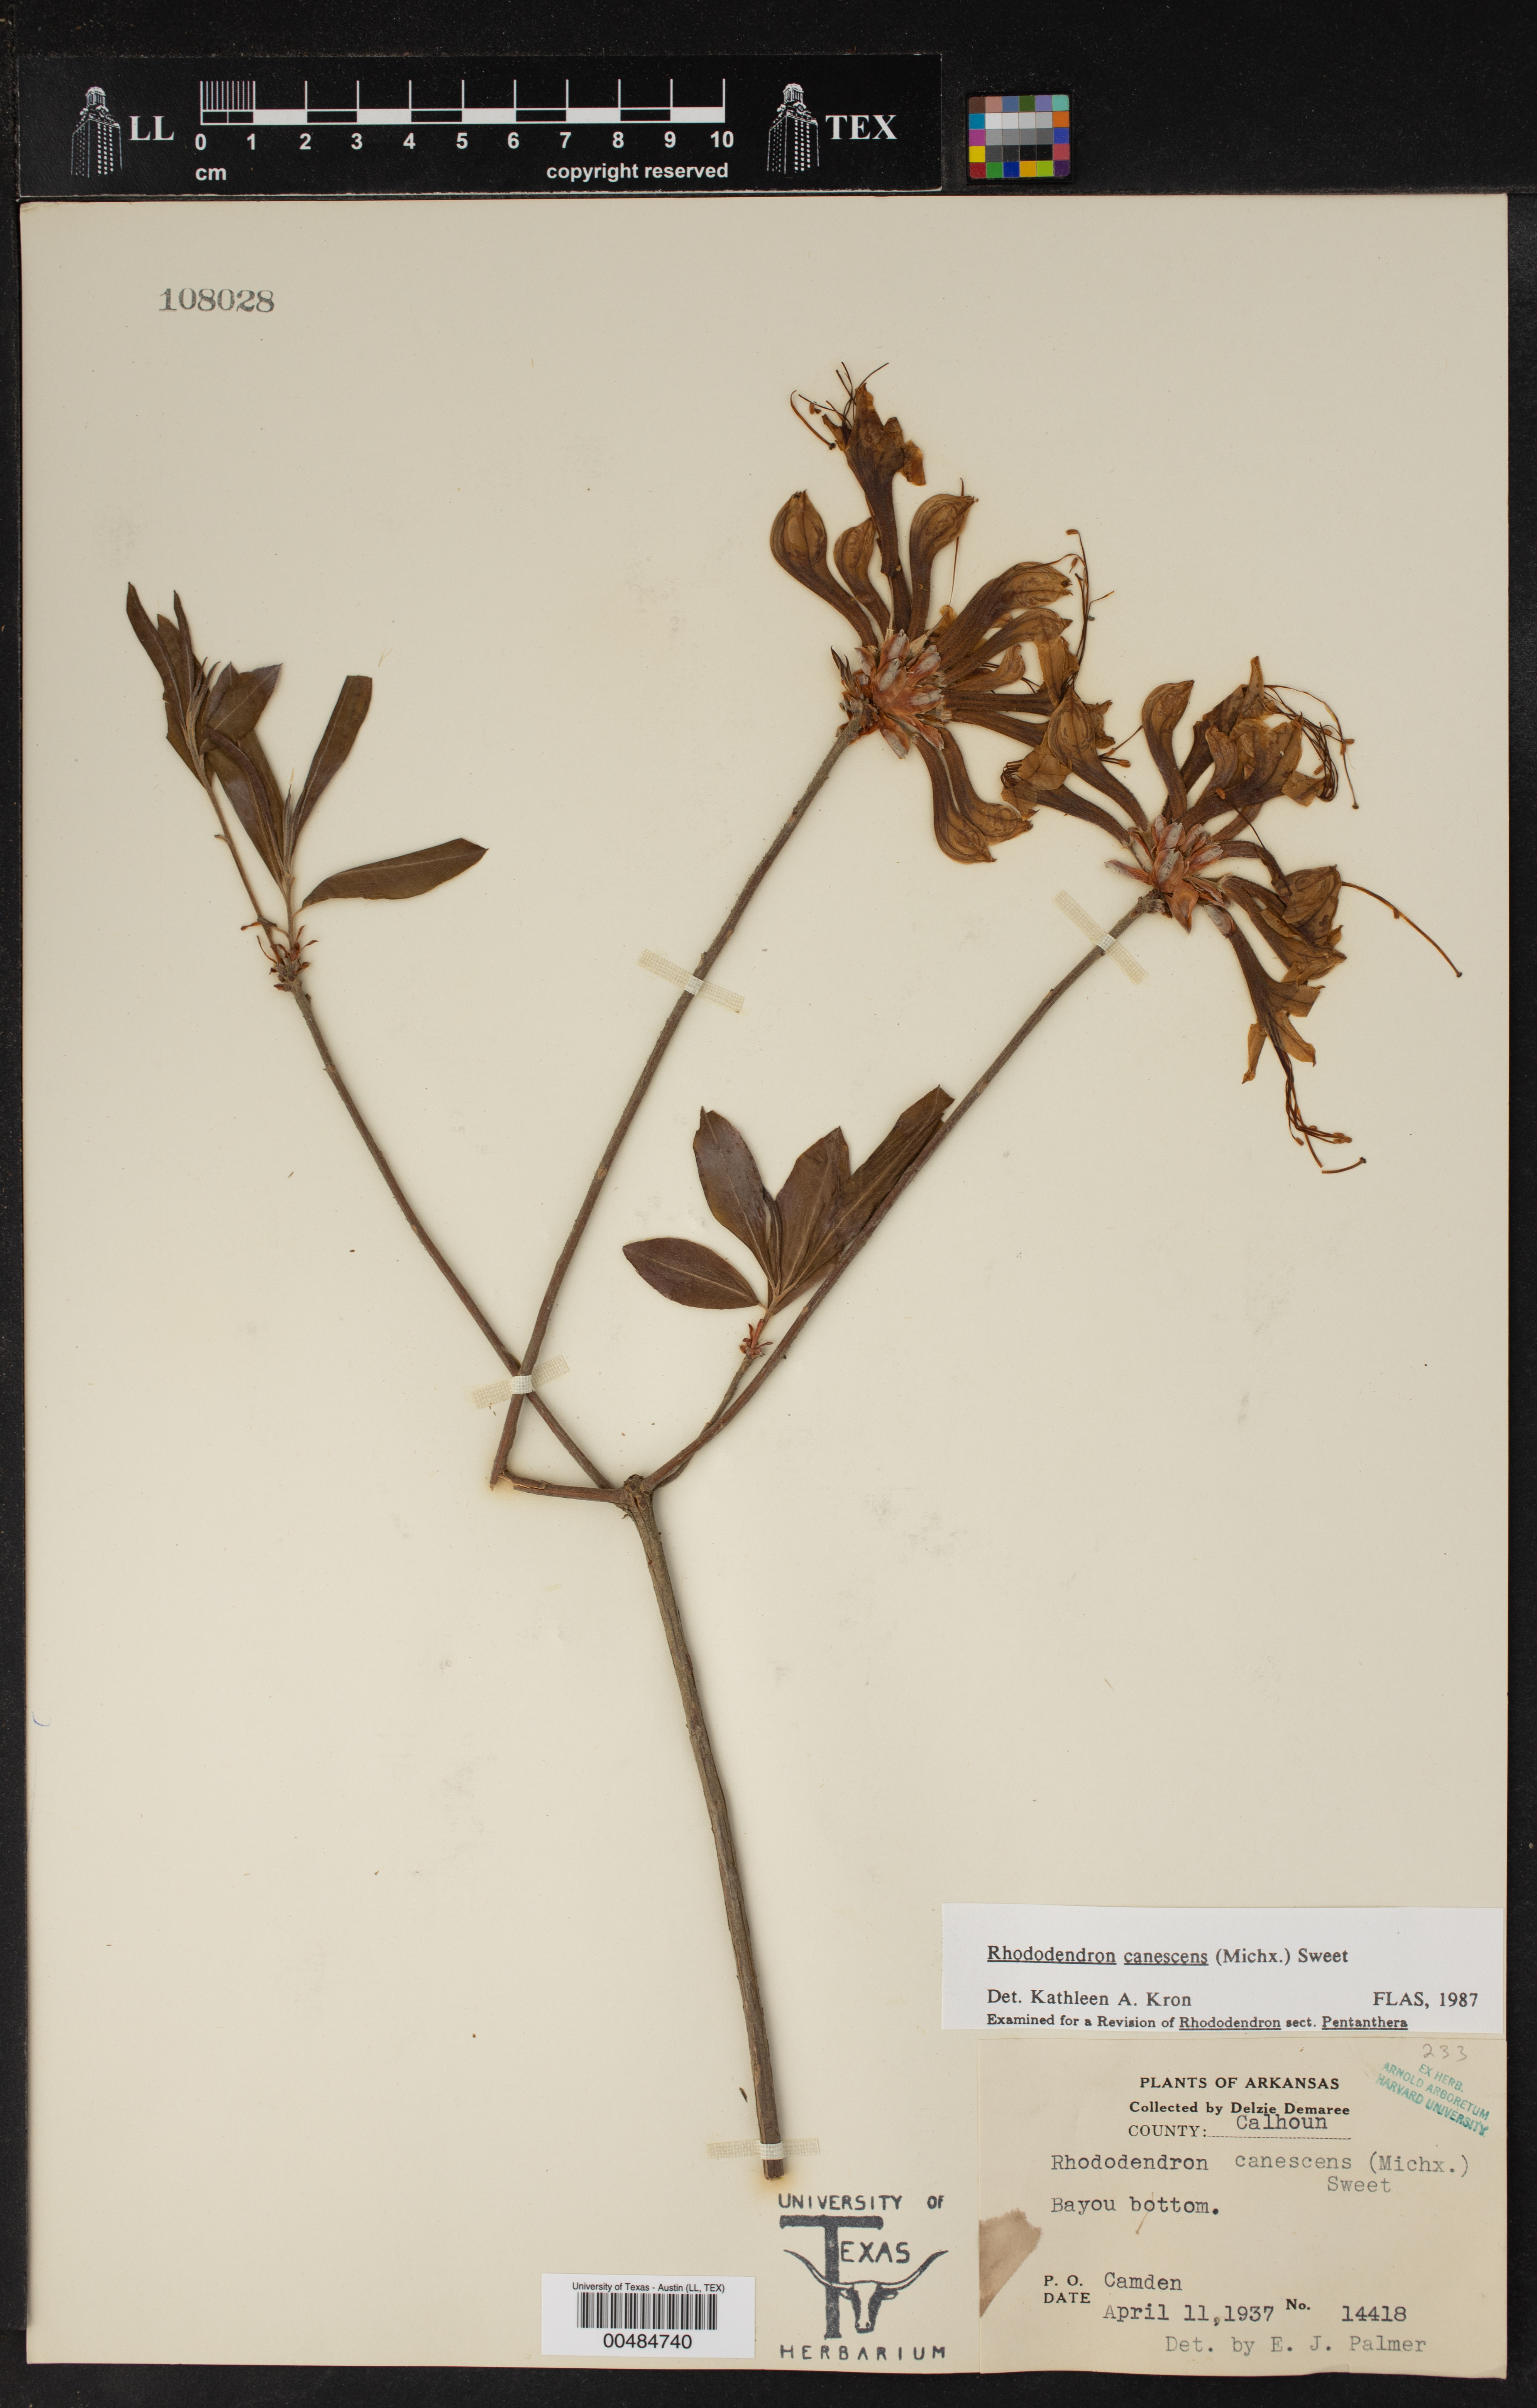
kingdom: Plantae
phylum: Tracheophyta
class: Magnoliopsida
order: Ericales
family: Ericaceae
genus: Rhododendron
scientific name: Rhododendron canescens
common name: Mountain azalea
